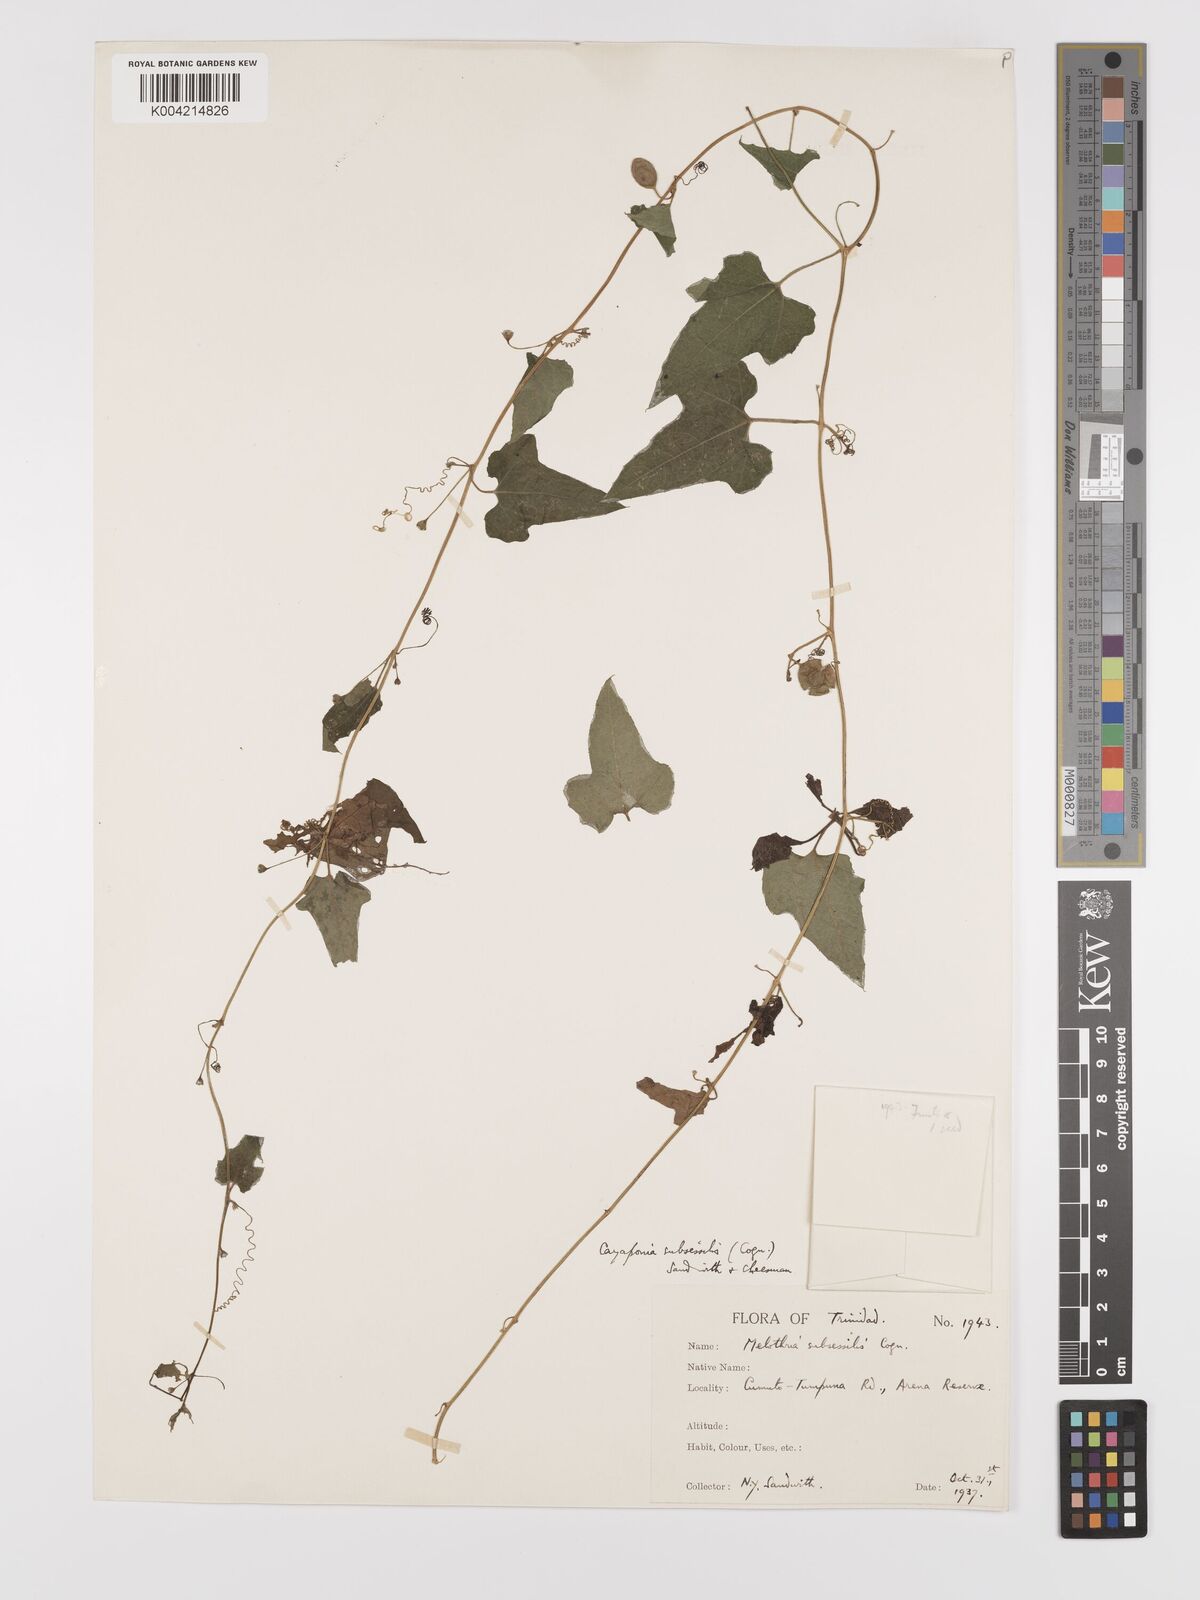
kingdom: Plantae
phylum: Tracheophyta
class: Magnoliopsida
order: Cucurbitales
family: Cucurbitaceae
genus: Cayaponia
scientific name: Cayaponia triangularis
